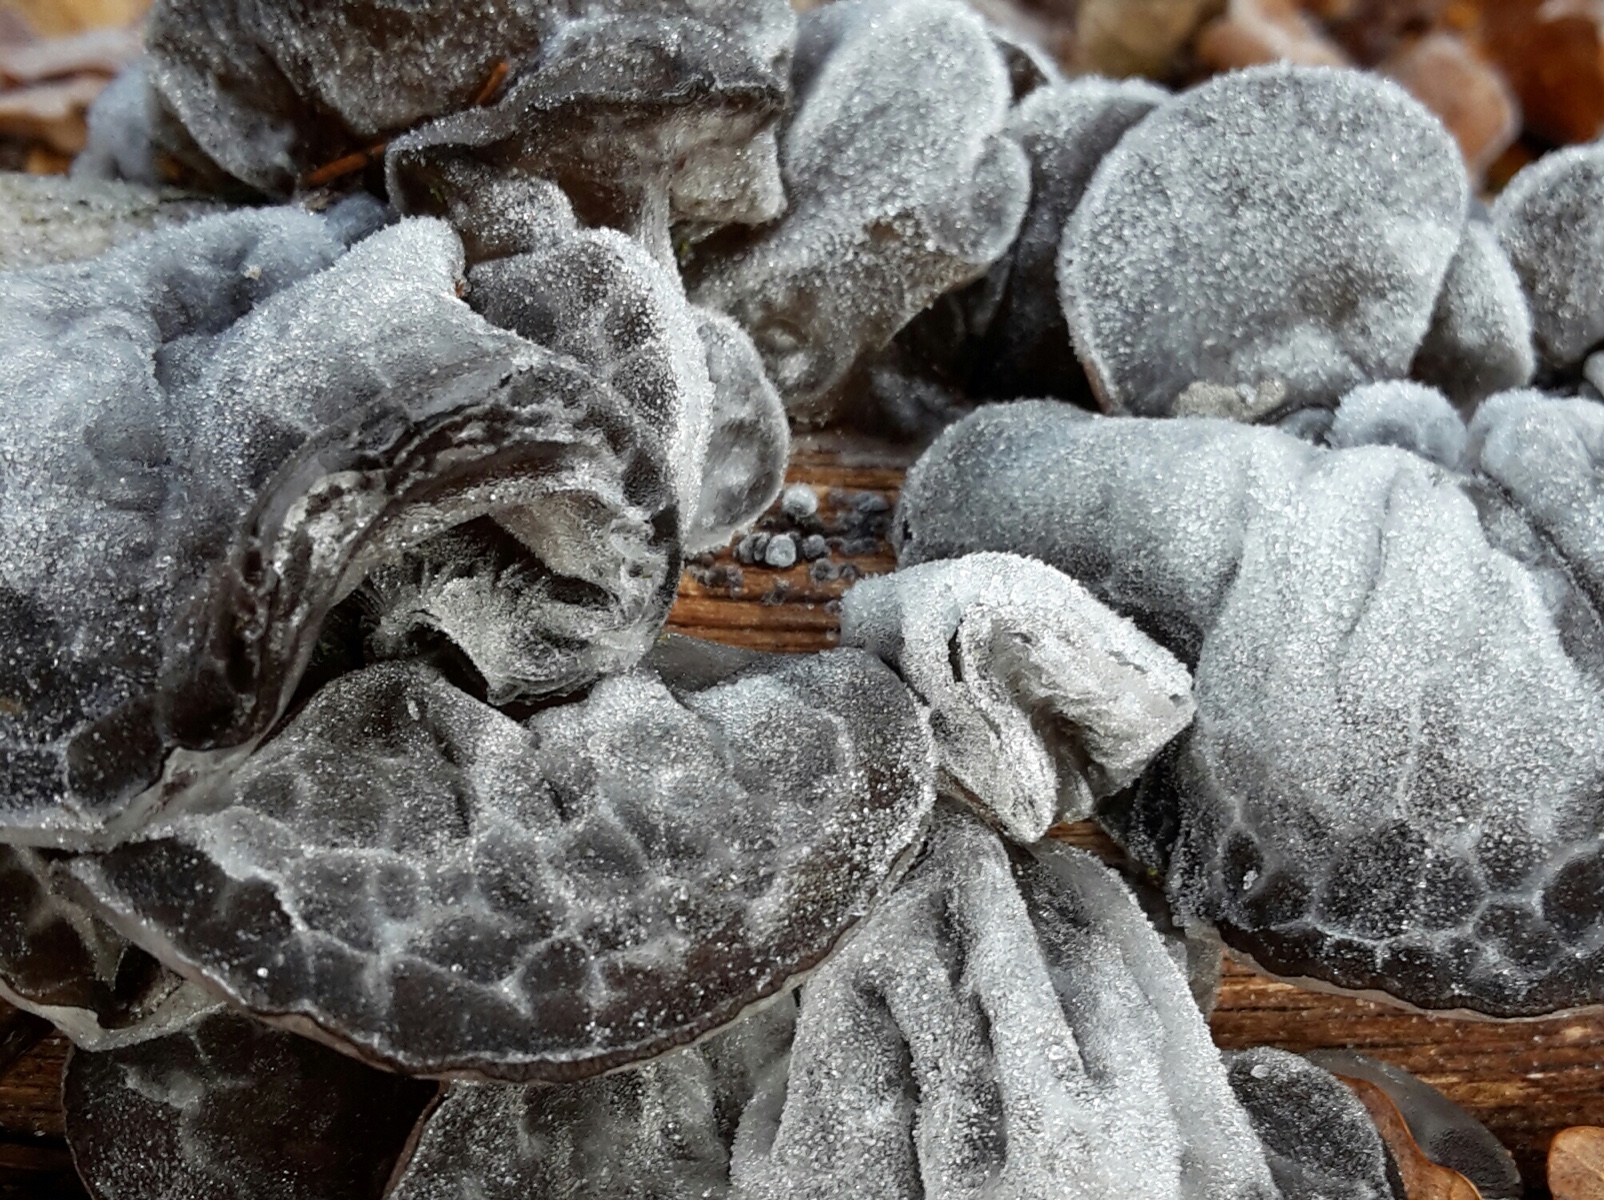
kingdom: Fungi
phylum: Basidiomycota
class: Agaricomycetes
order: Auriculariales
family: Auriculariaceae
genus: Exidia
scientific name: Exidia glandulosa
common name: ege-bævretop
